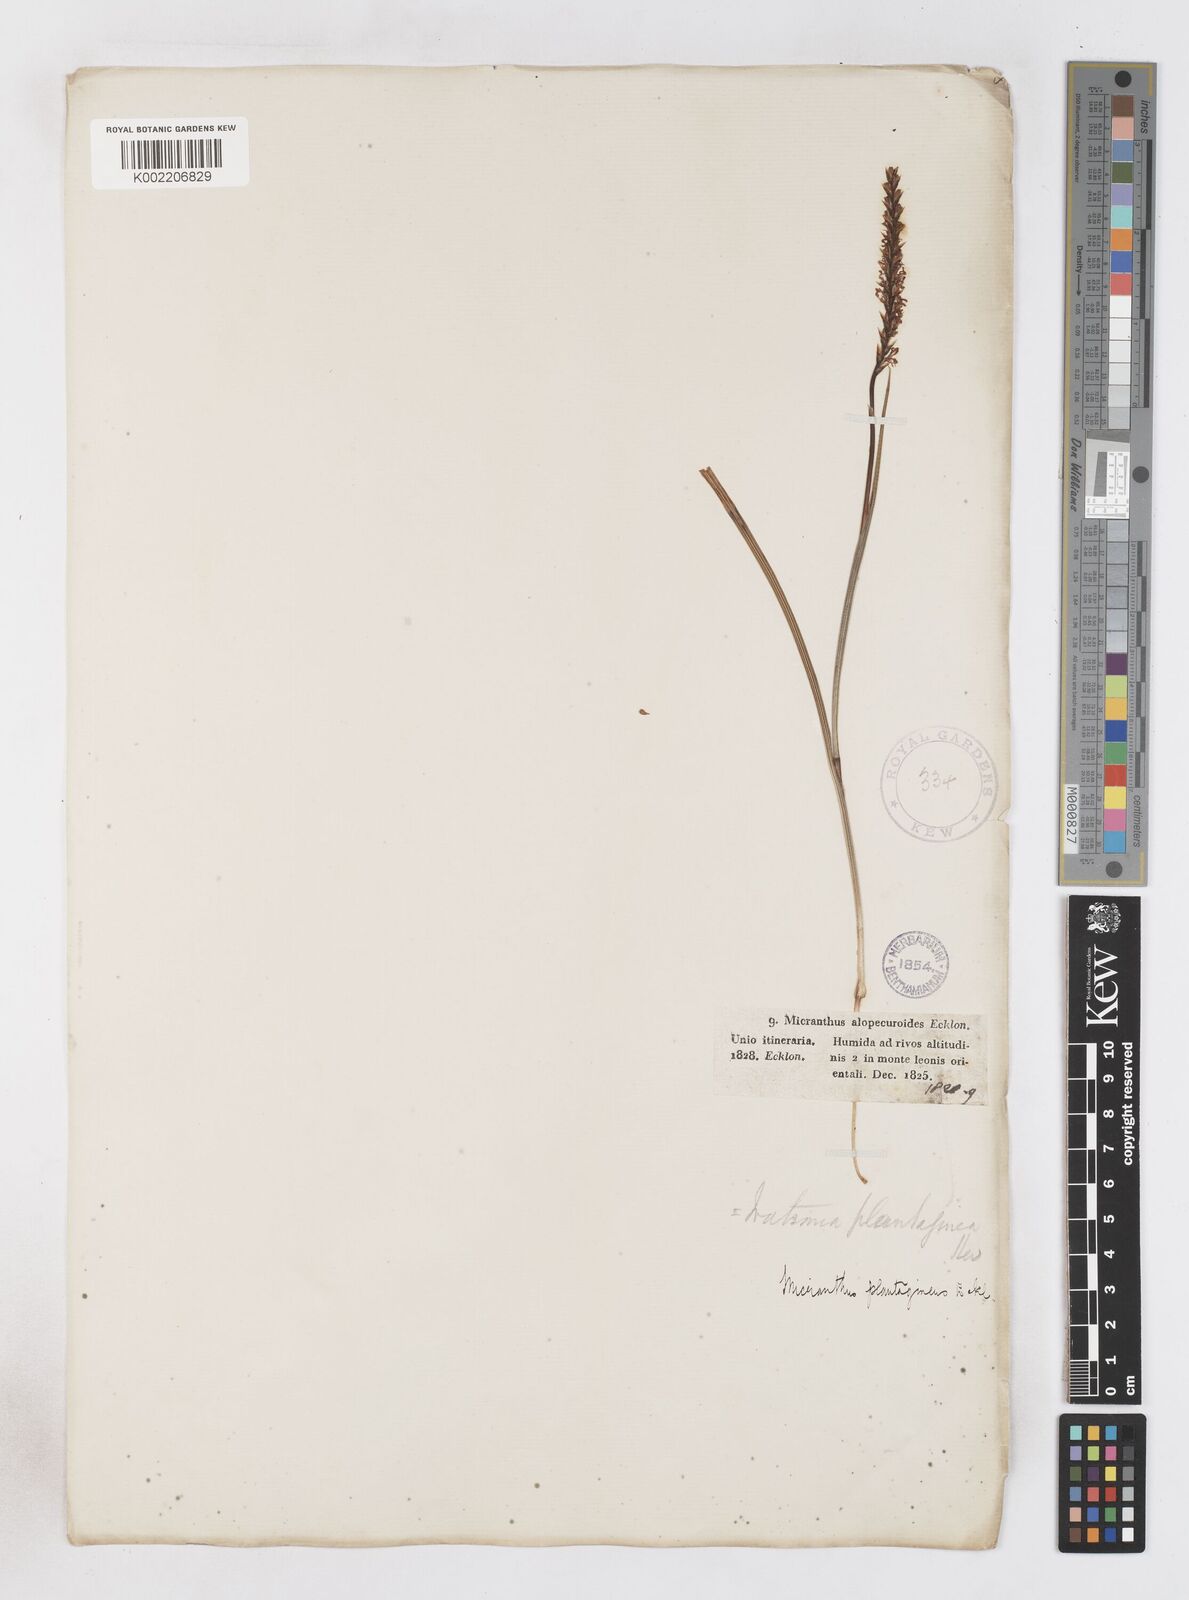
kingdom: Plantae
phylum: Tracheophyta
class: Liliopsida
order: Asparagales
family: Iridaceae
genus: Micranthus
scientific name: Micranthus alopecuroides
